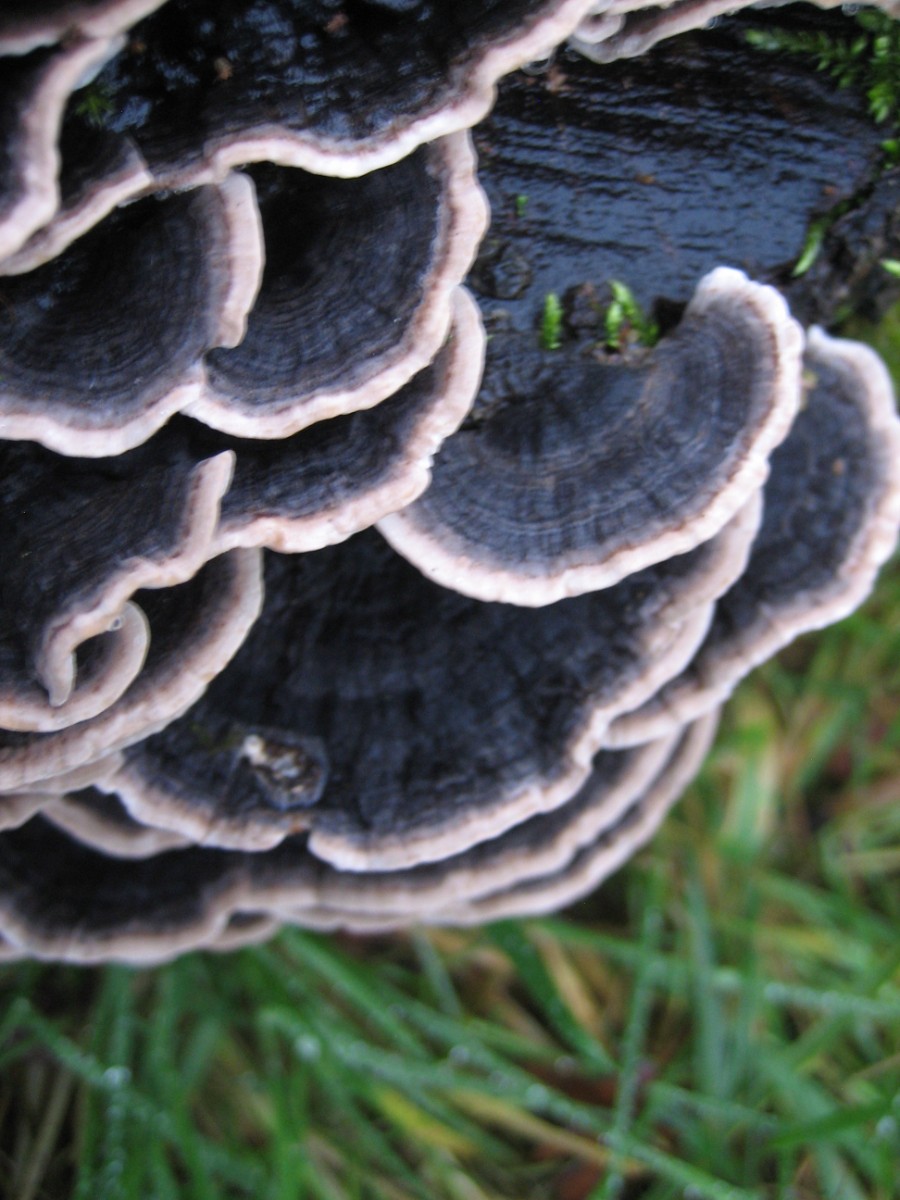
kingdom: Fungi
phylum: Basidiomycota
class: Agaricomycetes
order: Polyporales
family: Polyporaceae
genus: Trametes
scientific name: Trametes versicolor
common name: broget læderporesvamp
